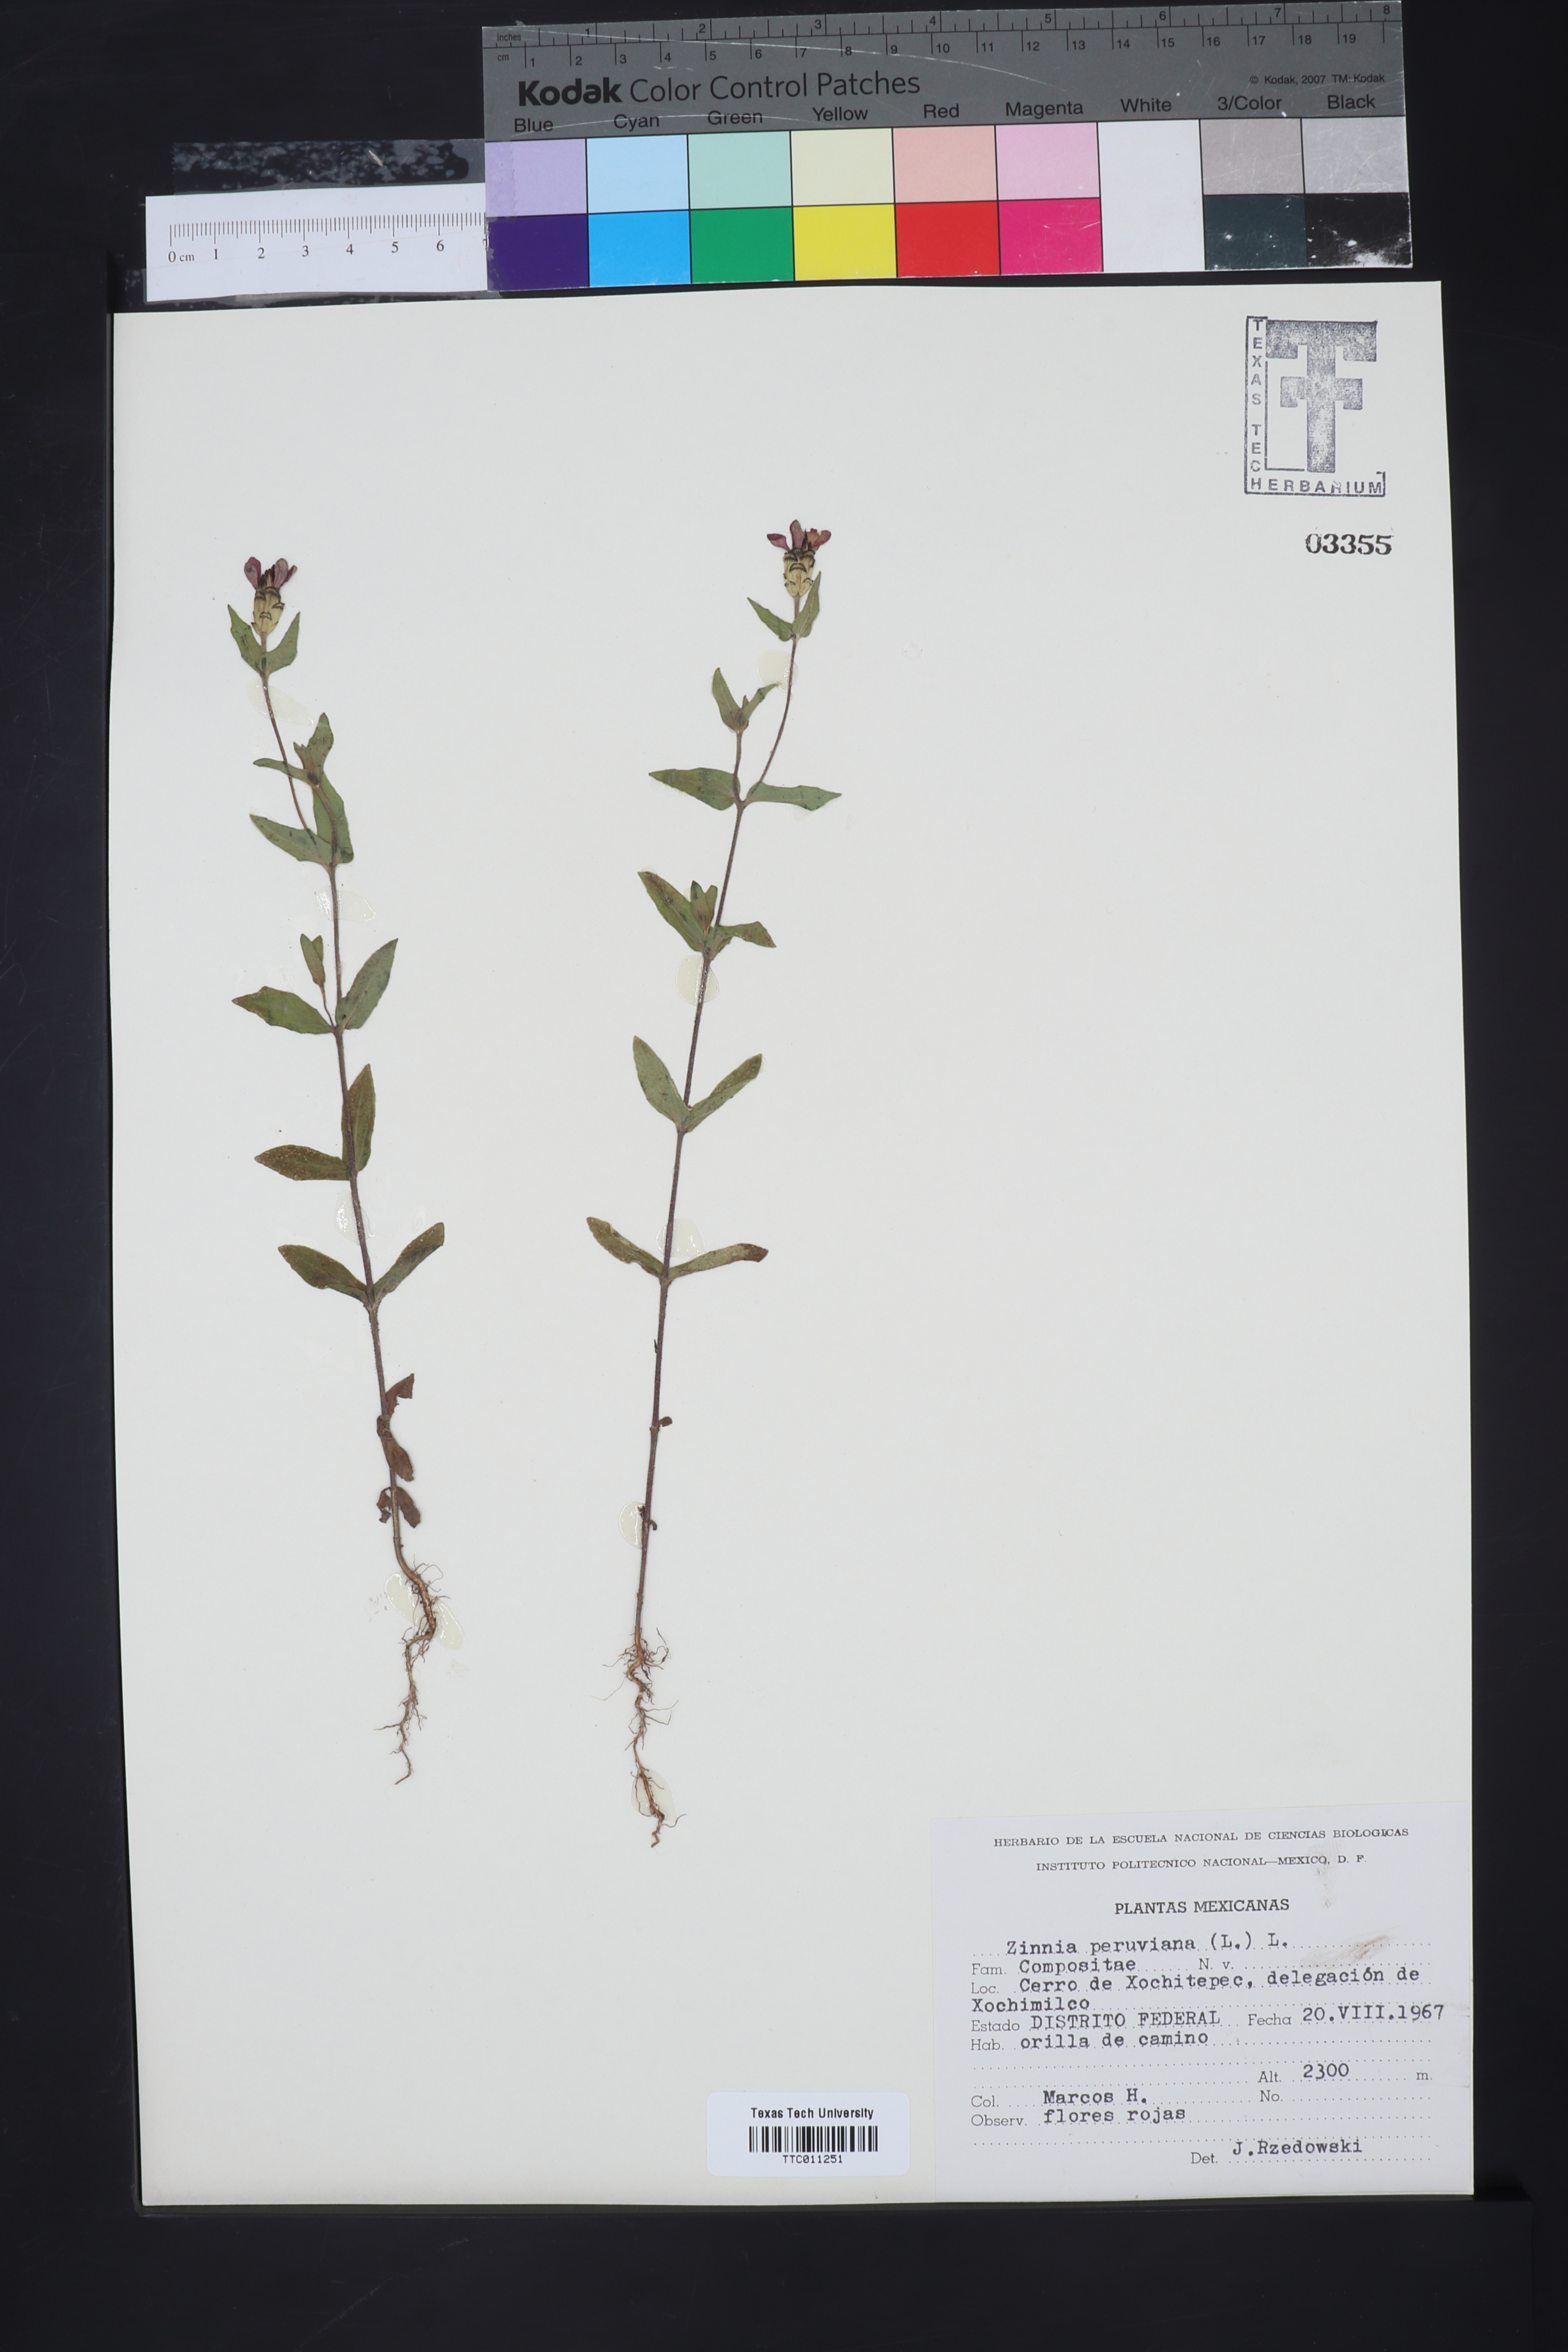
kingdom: Plantae
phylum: Tracheophyta
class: Magnoliopsida
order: Asterales
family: Asteraceae
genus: Zinnia
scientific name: Zinnia peruviana
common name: Peruvian zinnia
